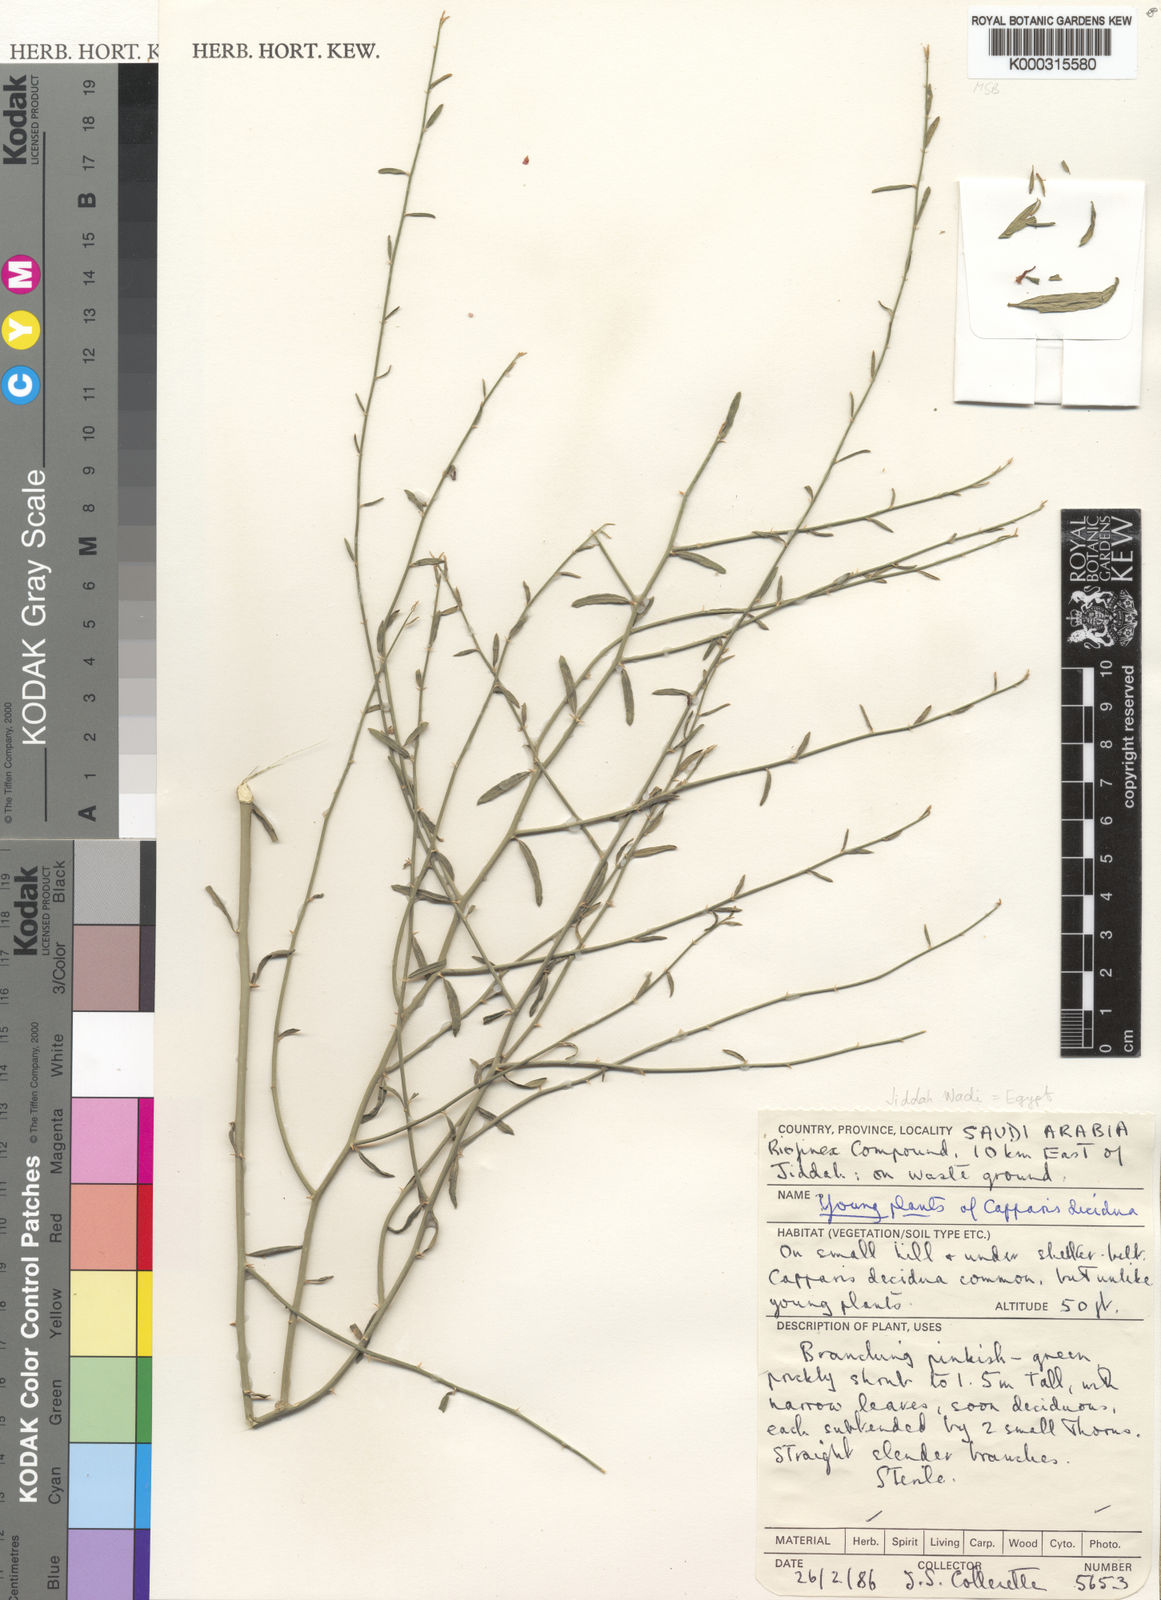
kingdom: Plantae
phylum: Tracheophyta
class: Magnoliopsida
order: Brassicales
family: Capparaceae
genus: Capparis
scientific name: Capparis decidua
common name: Sodada
